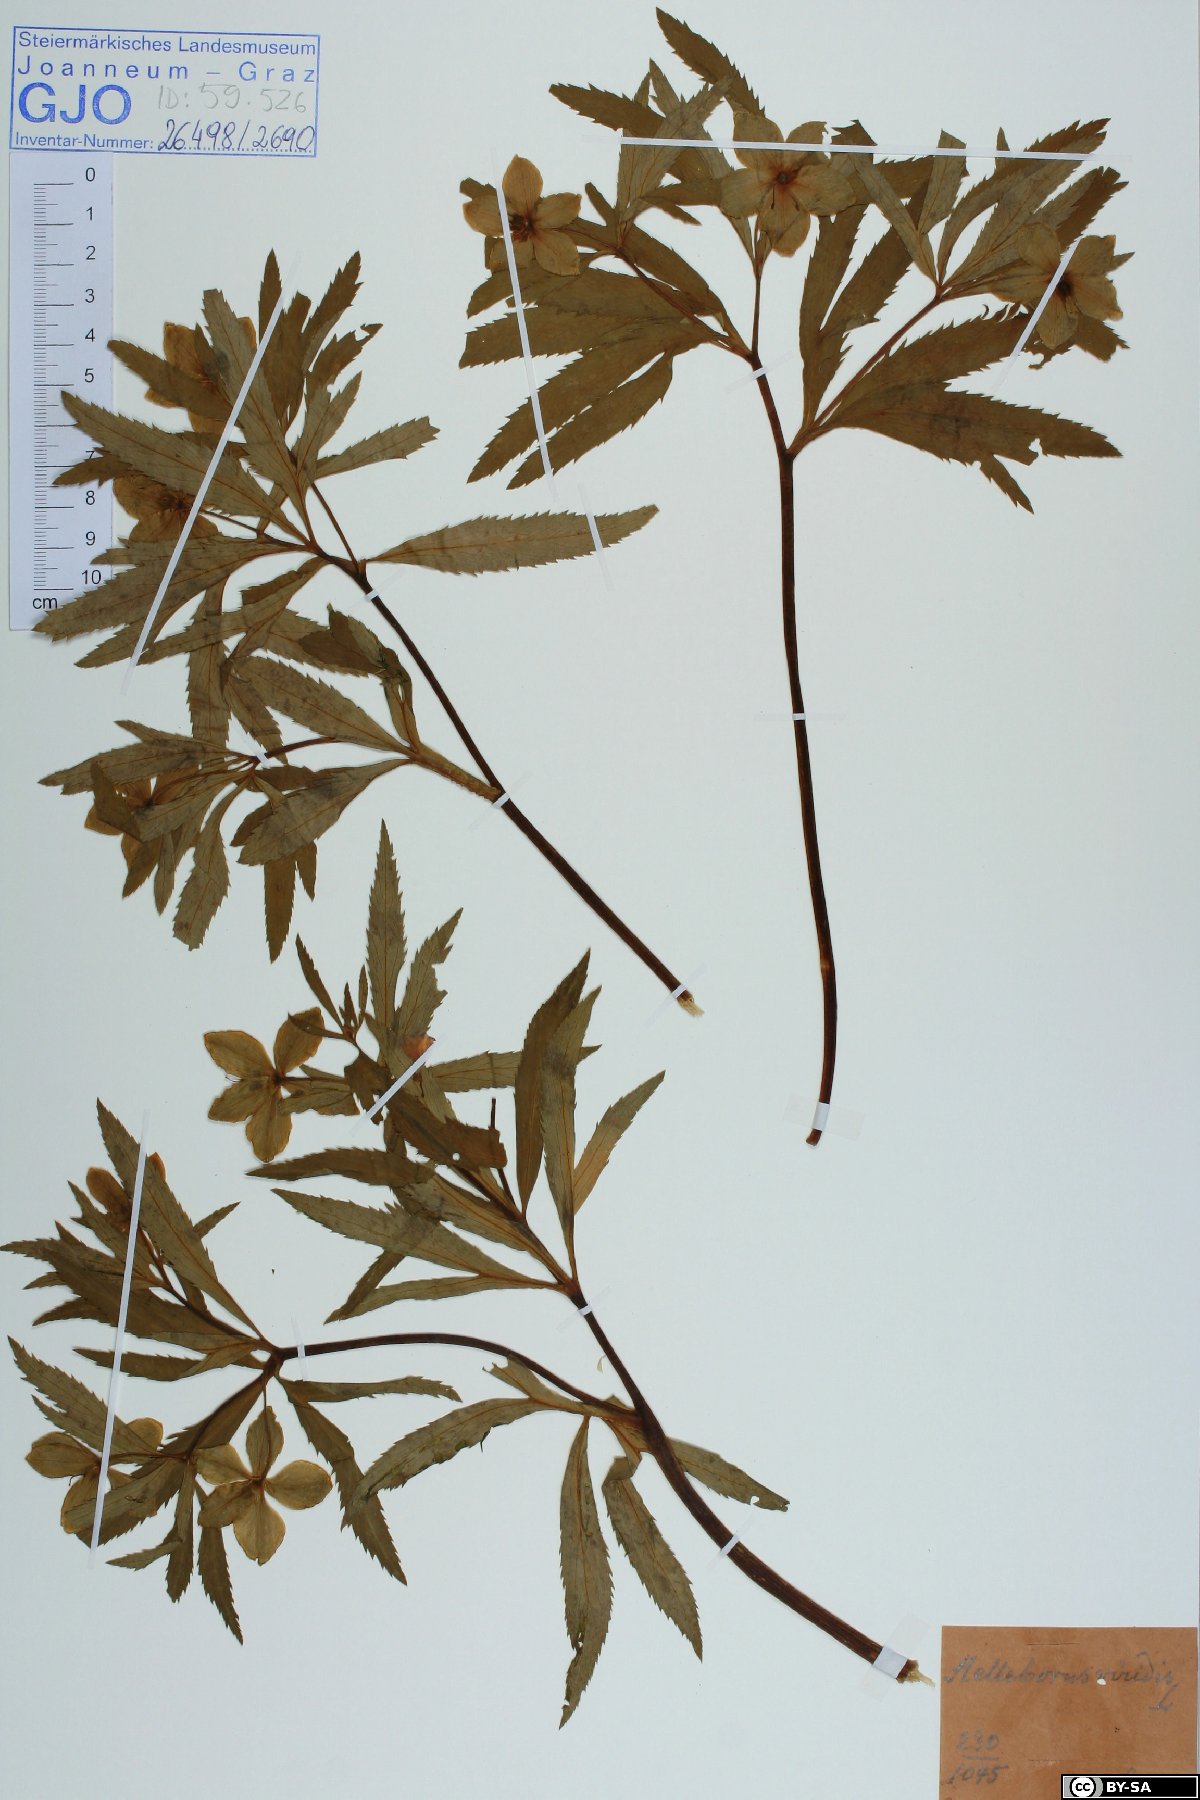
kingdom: Plantae
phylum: Tracheophyta
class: Magnoliopsida
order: Ranunculales
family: Ranunculaceae
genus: Helleborus
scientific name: Helleborus dumetorum
